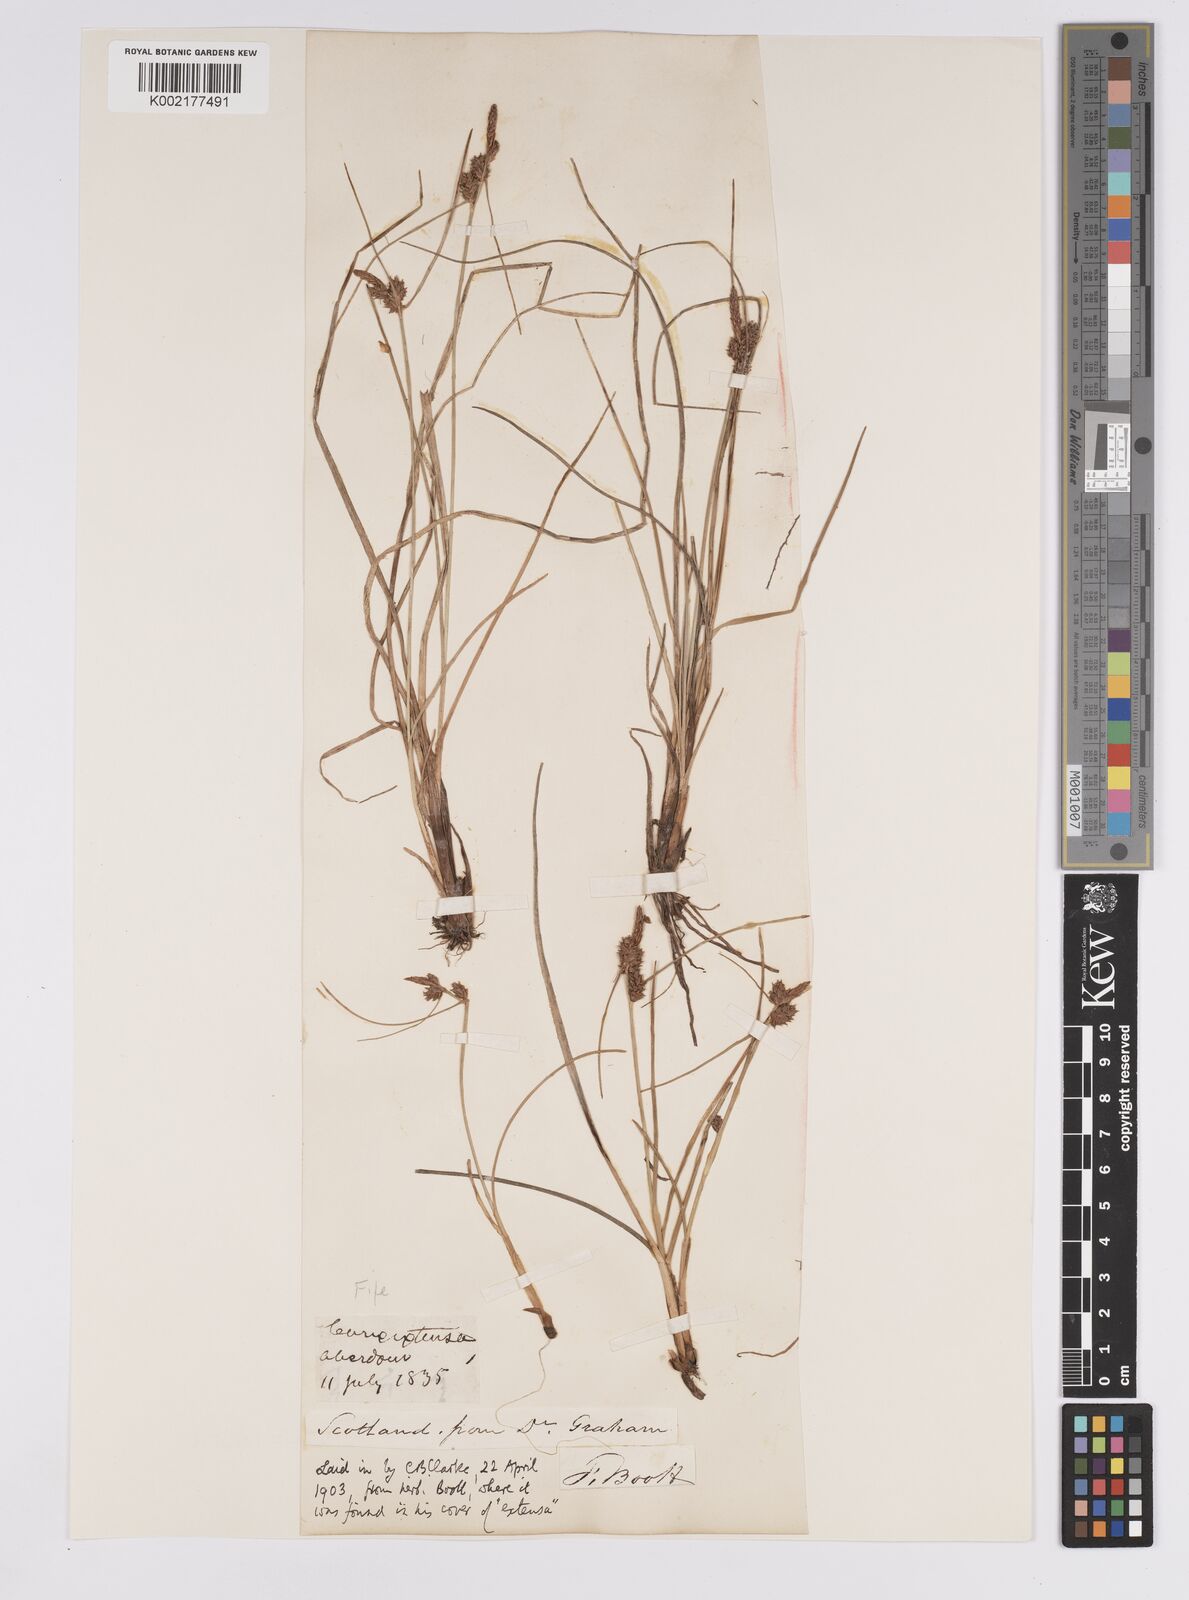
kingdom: Plantae
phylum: Tracheophyta
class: Liliopsida
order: Poales
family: Cyperaceae
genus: Carex
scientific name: Carex extensa
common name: Long-bracted sedge
